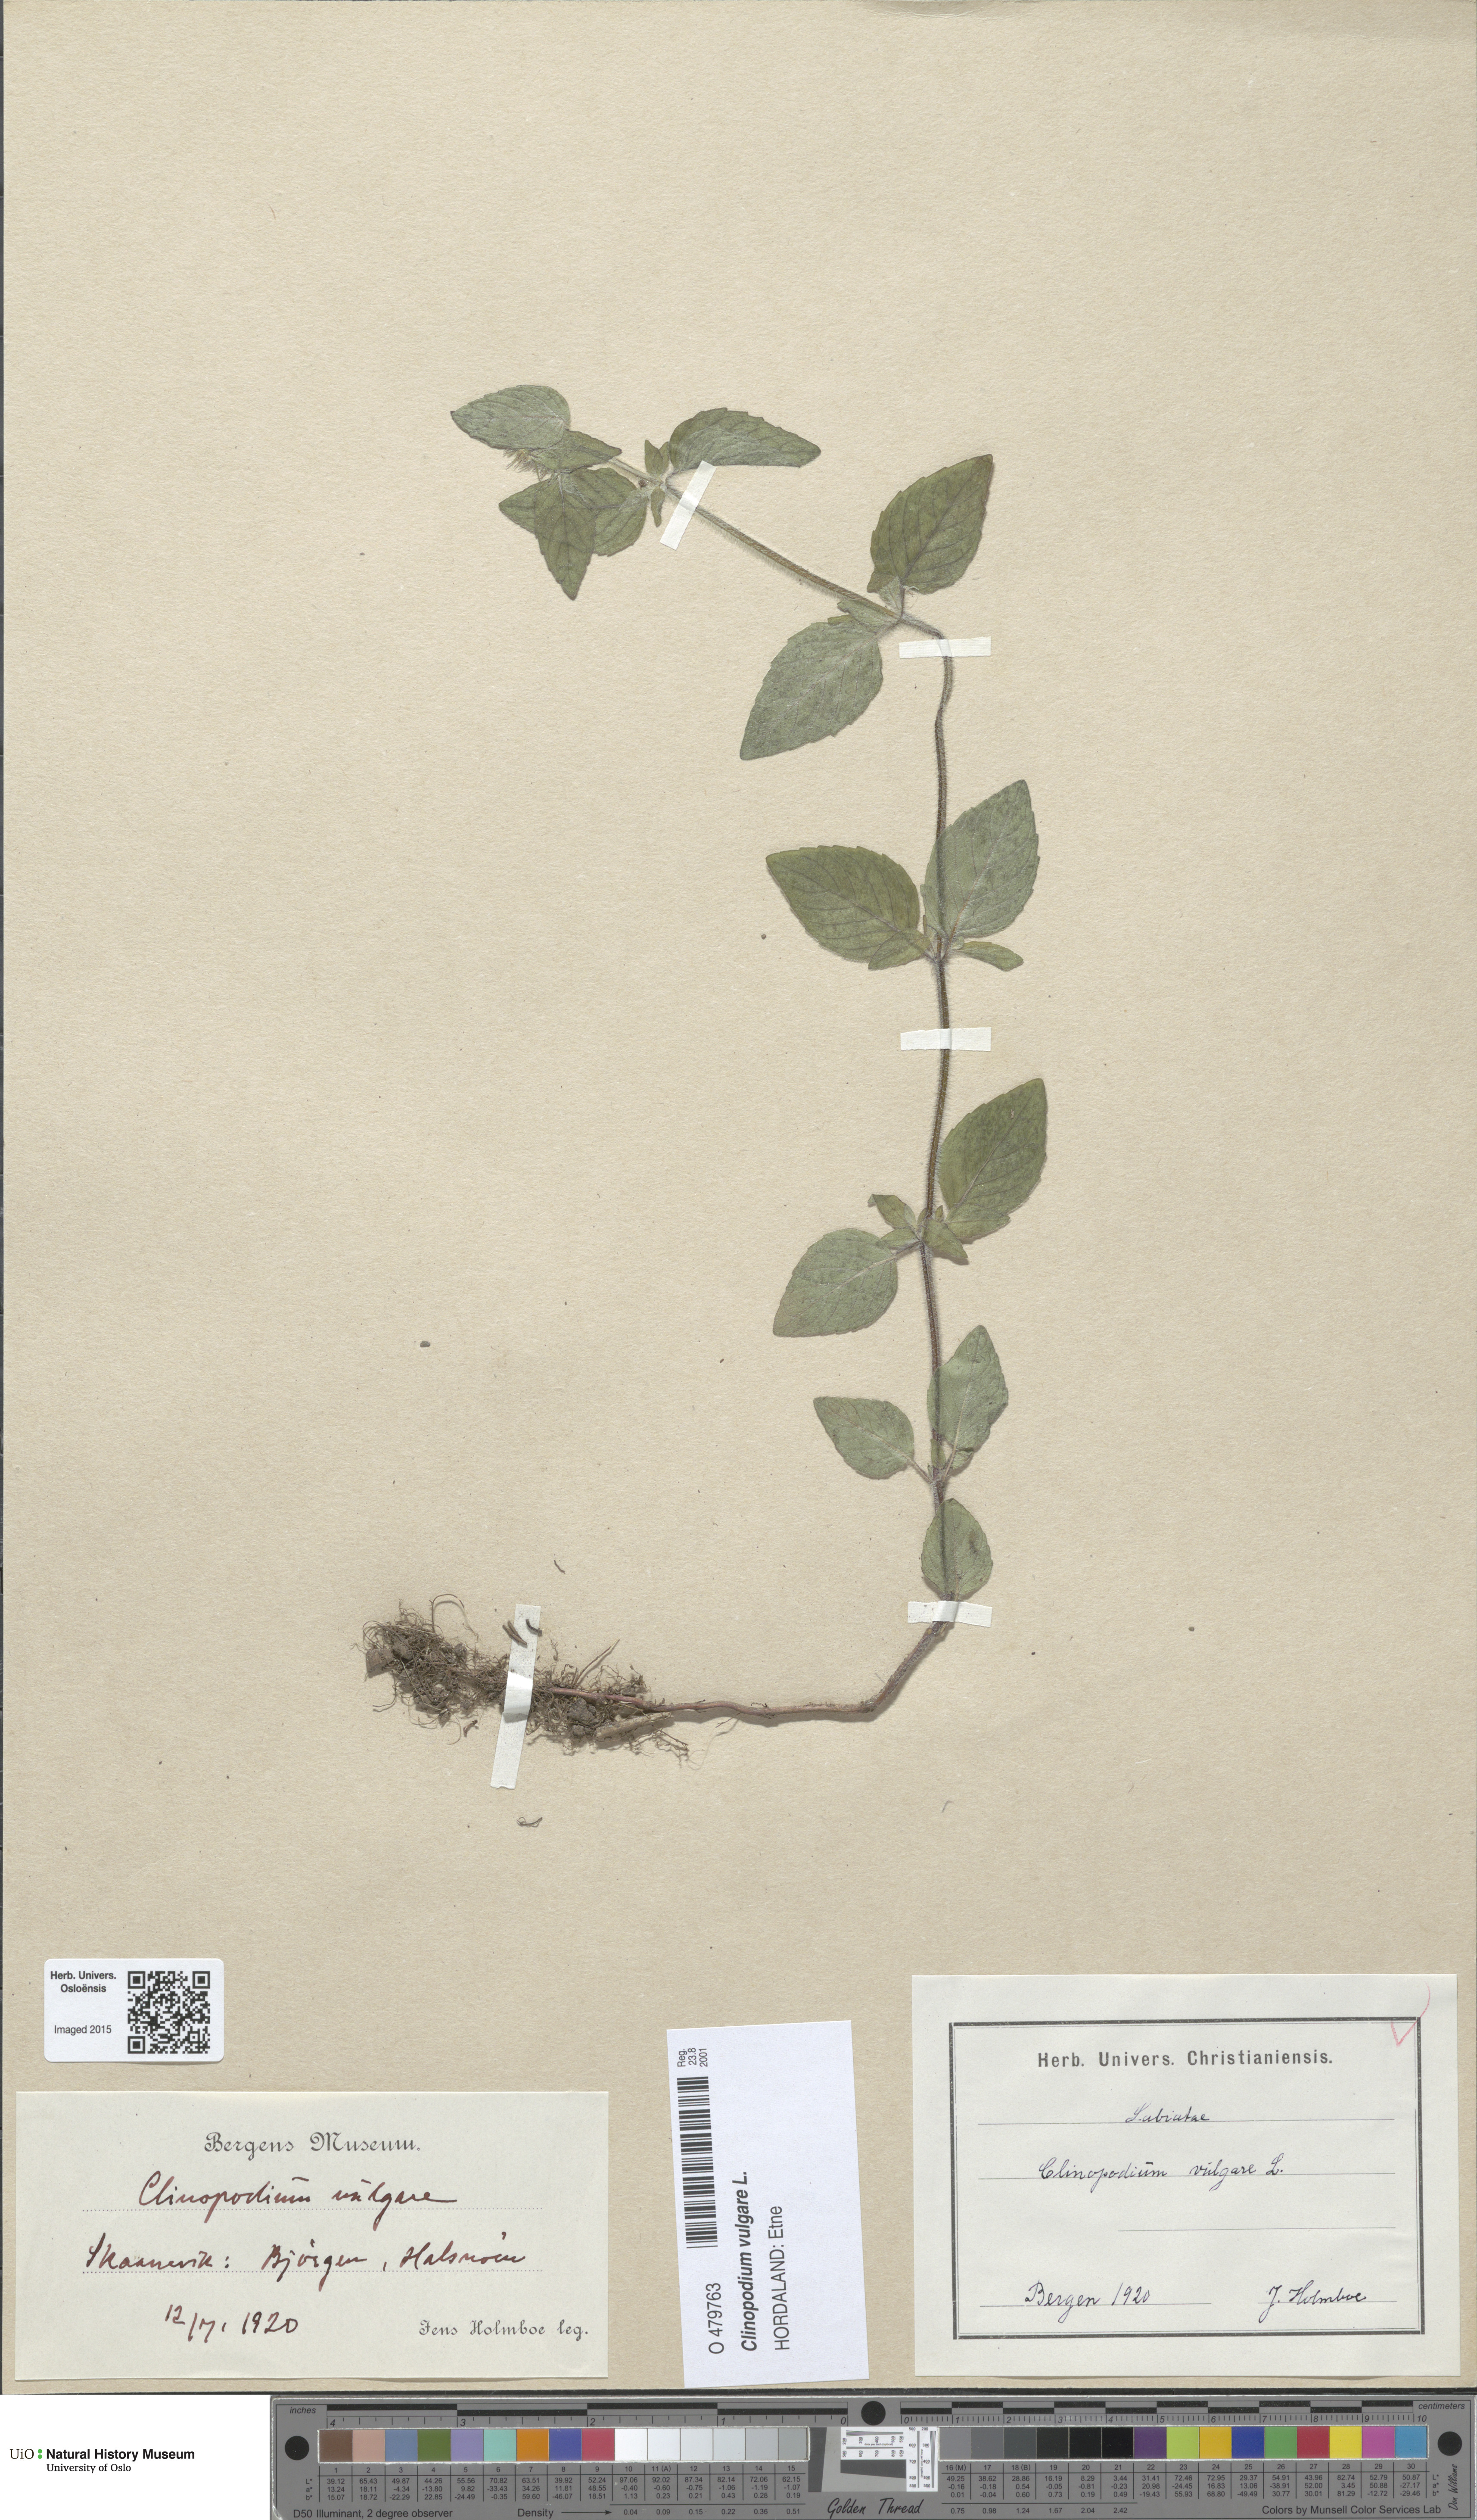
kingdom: Plantae
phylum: Tracheophyta
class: Magnoliopsida
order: Lamiales
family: Lamiaceae
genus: Clinopodium
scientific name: Clinopodium vulgare
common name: Wild basil
